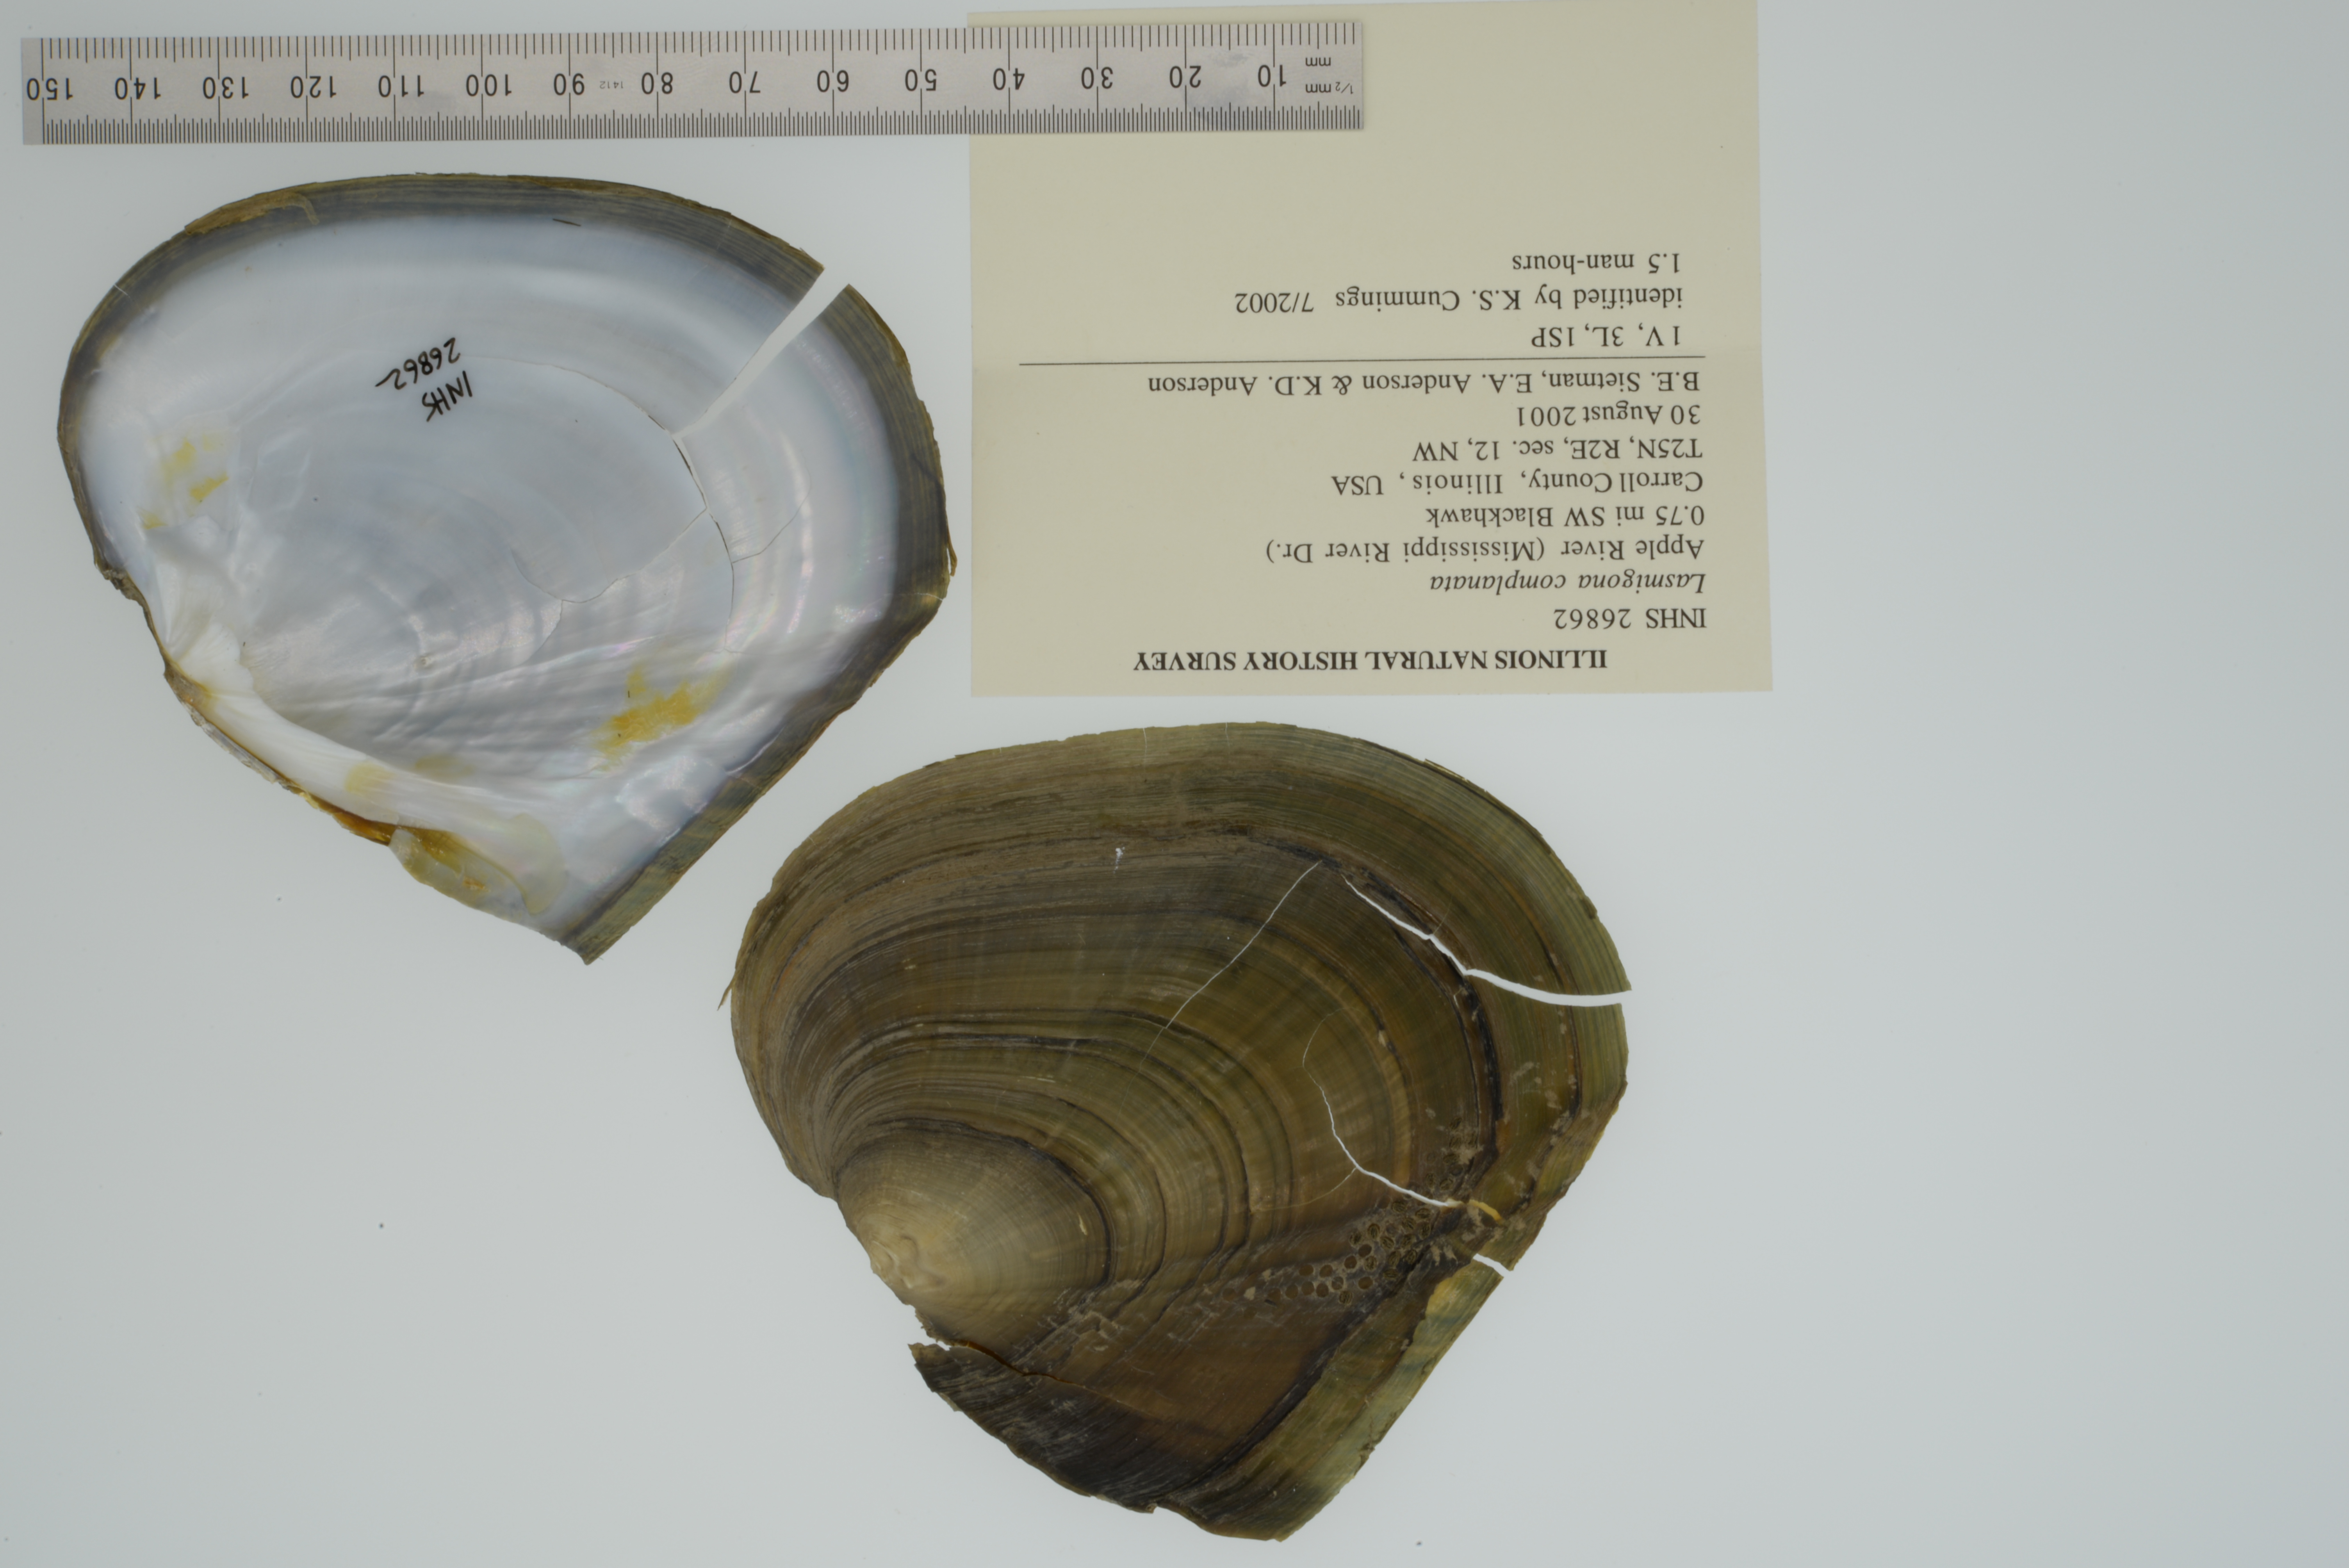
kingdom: Animalia
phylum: Mollusca
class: Bivalvia
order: Unionida
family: Unionidae
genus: Lasmigona
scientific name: Lasmigona complanata
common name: White heelsplitter
